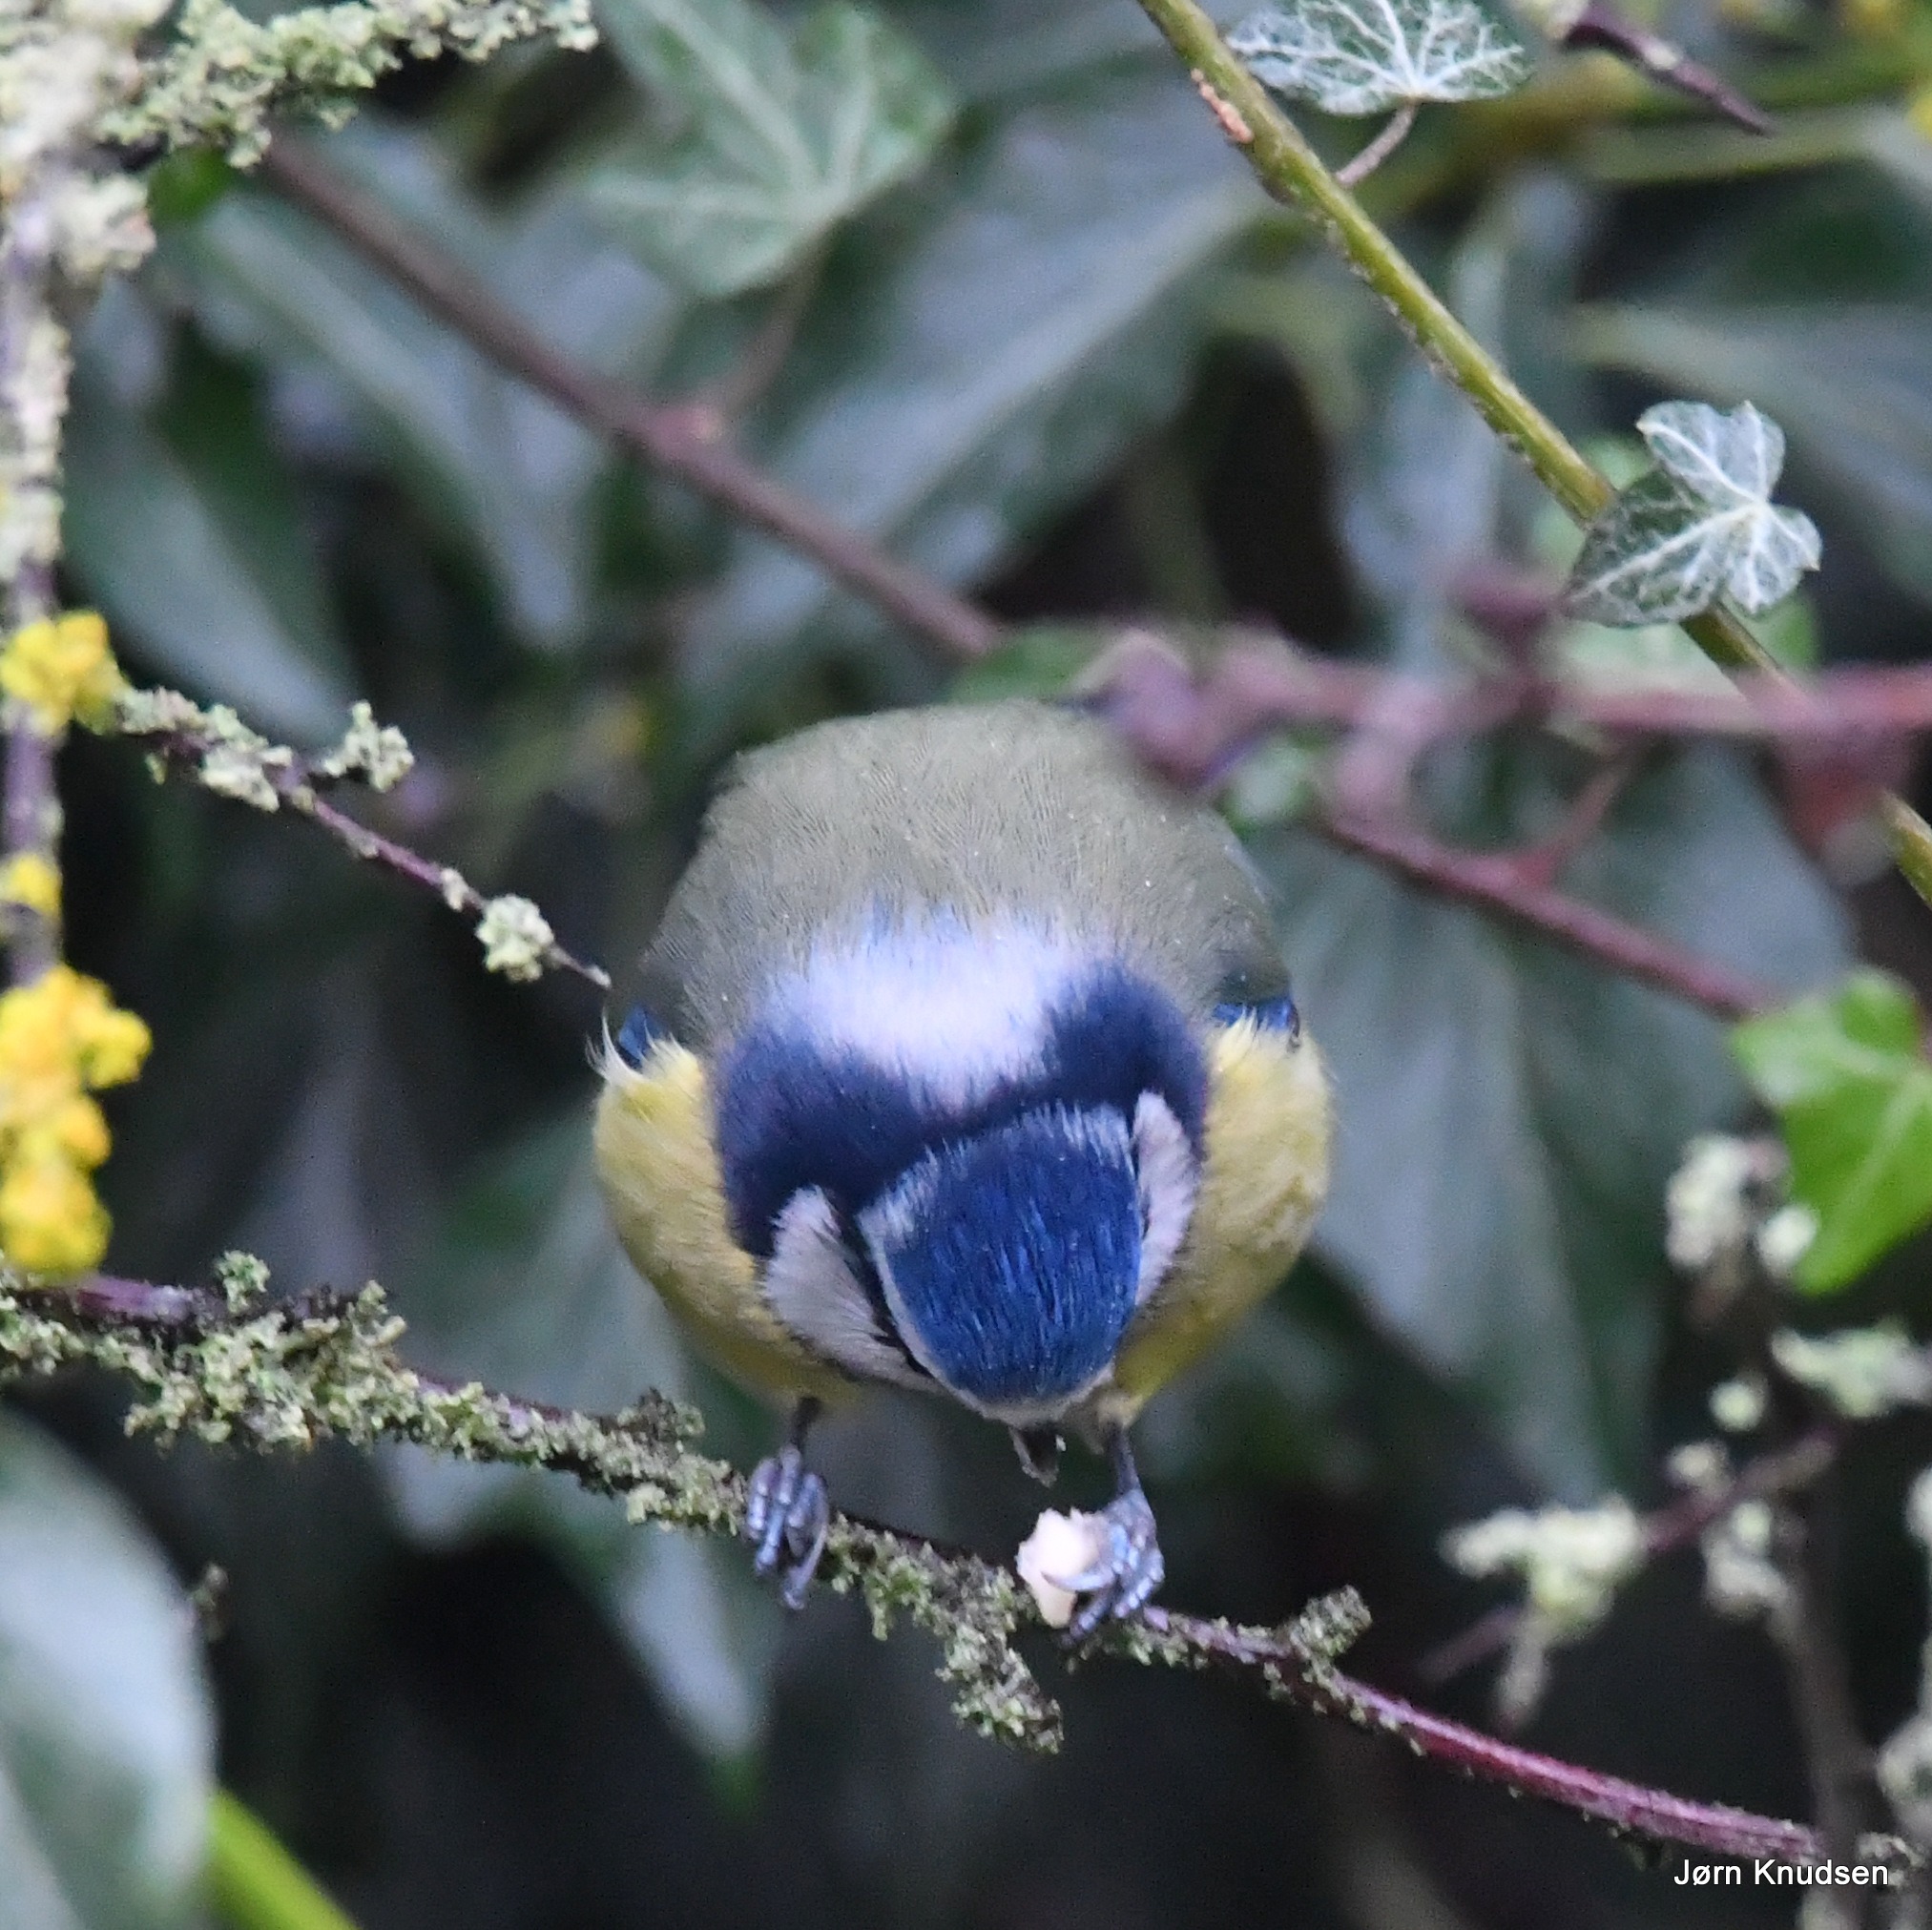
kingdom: Animalia
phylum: Chordata
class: Aves
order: Passeriformes
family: Paridae
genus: Cyanistes
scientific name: Cyanistes caeruleus
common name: Blåmejse
